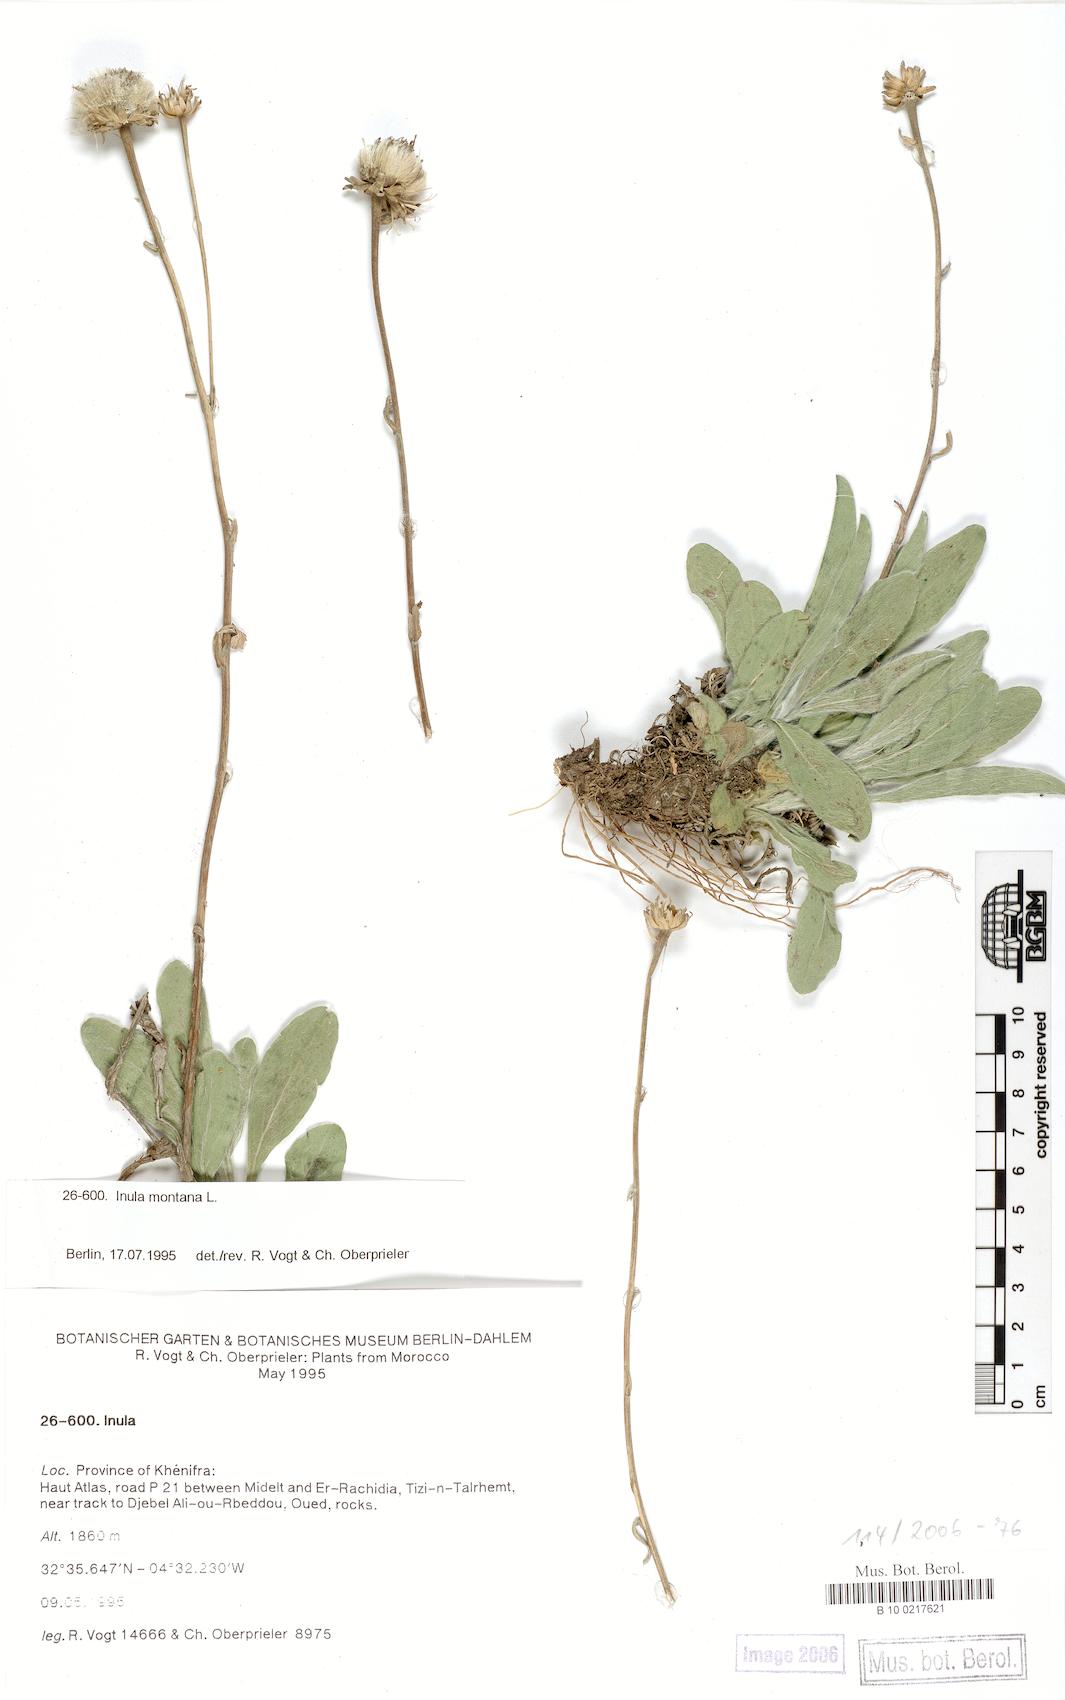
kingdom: Plantae
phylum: Tracheophyta
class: Magnoliopsida
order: Asterales
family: Asteraceae
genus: Pentanema
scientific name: Pentanema montanum
